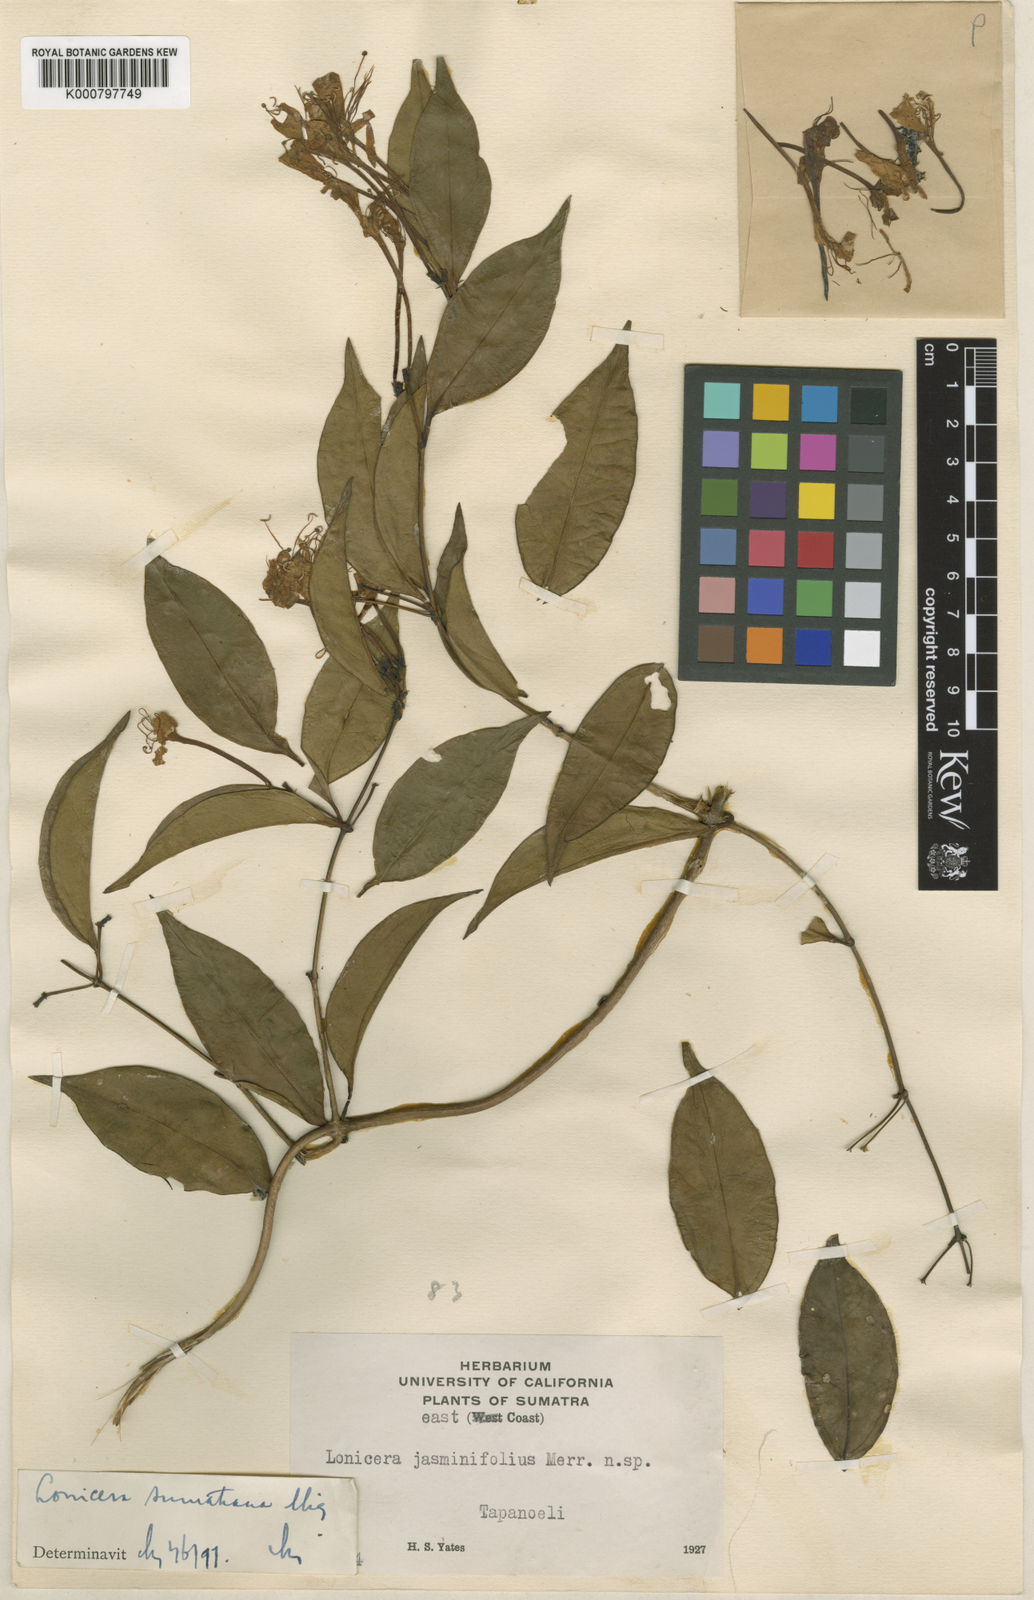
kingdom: Plantae
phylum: Tracheophyta
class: Magnoliopsida
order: Dipsacales
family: Caprifoliaceae
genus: Lonicera
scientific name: Lonicera sumatrana
